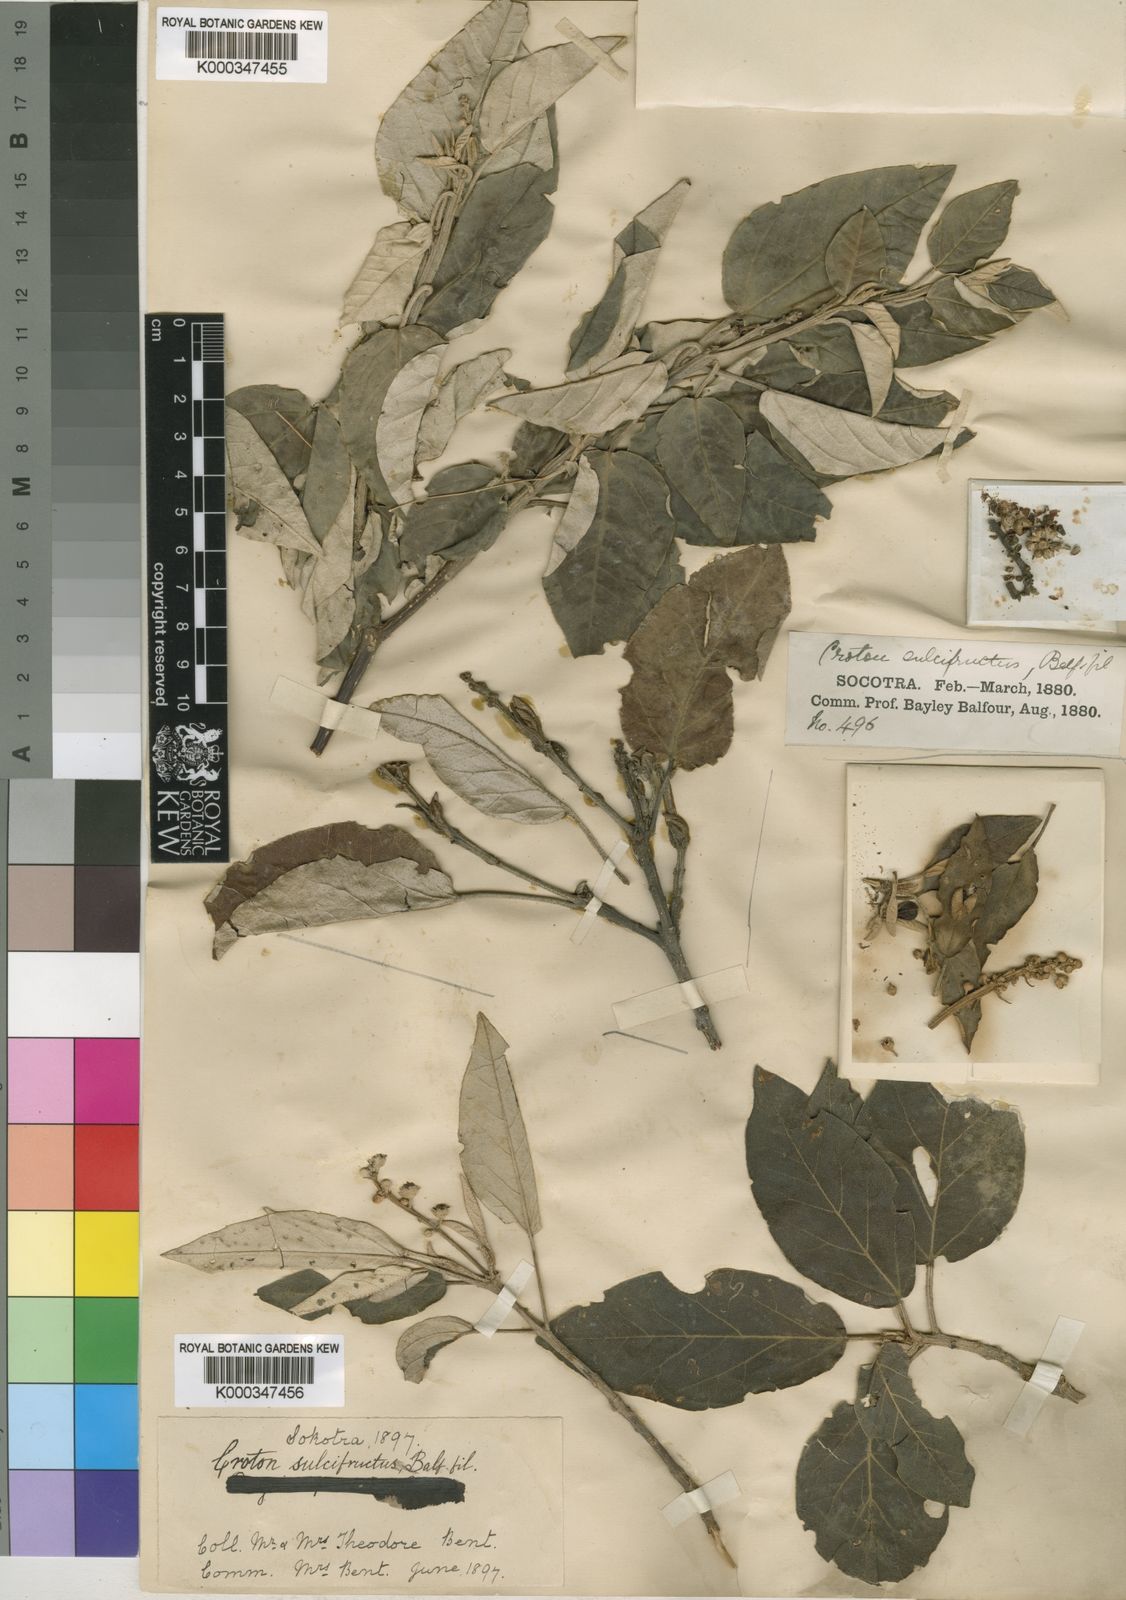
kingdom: Plantae
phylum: Tracheophyta
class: Magnoliopsida
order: Malpighiales
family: Euphorbiaceae
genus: Croton
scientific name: Croton sulcifructus
